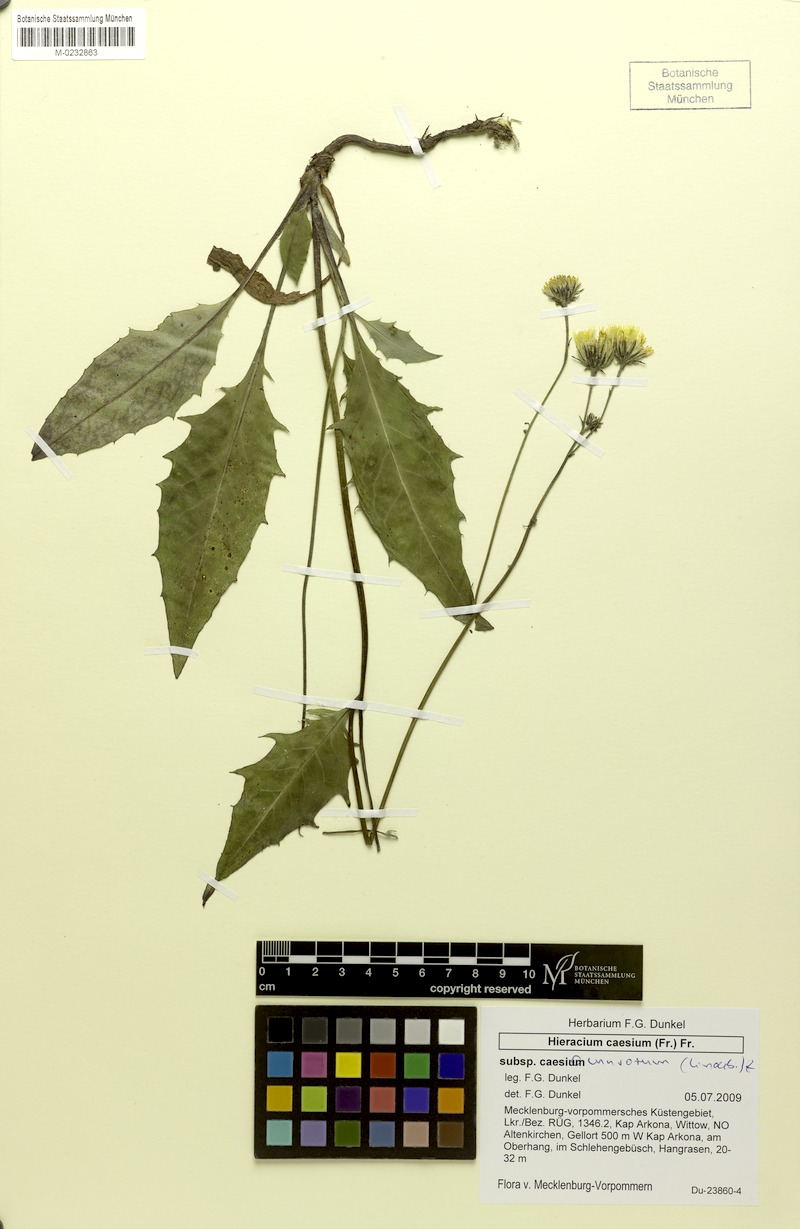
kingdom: Plantae
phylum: Tracheophyta
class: Magnoliopsida
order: Asterales
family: Asteraceae
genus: Hieracium
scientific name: Hieracium caesium
